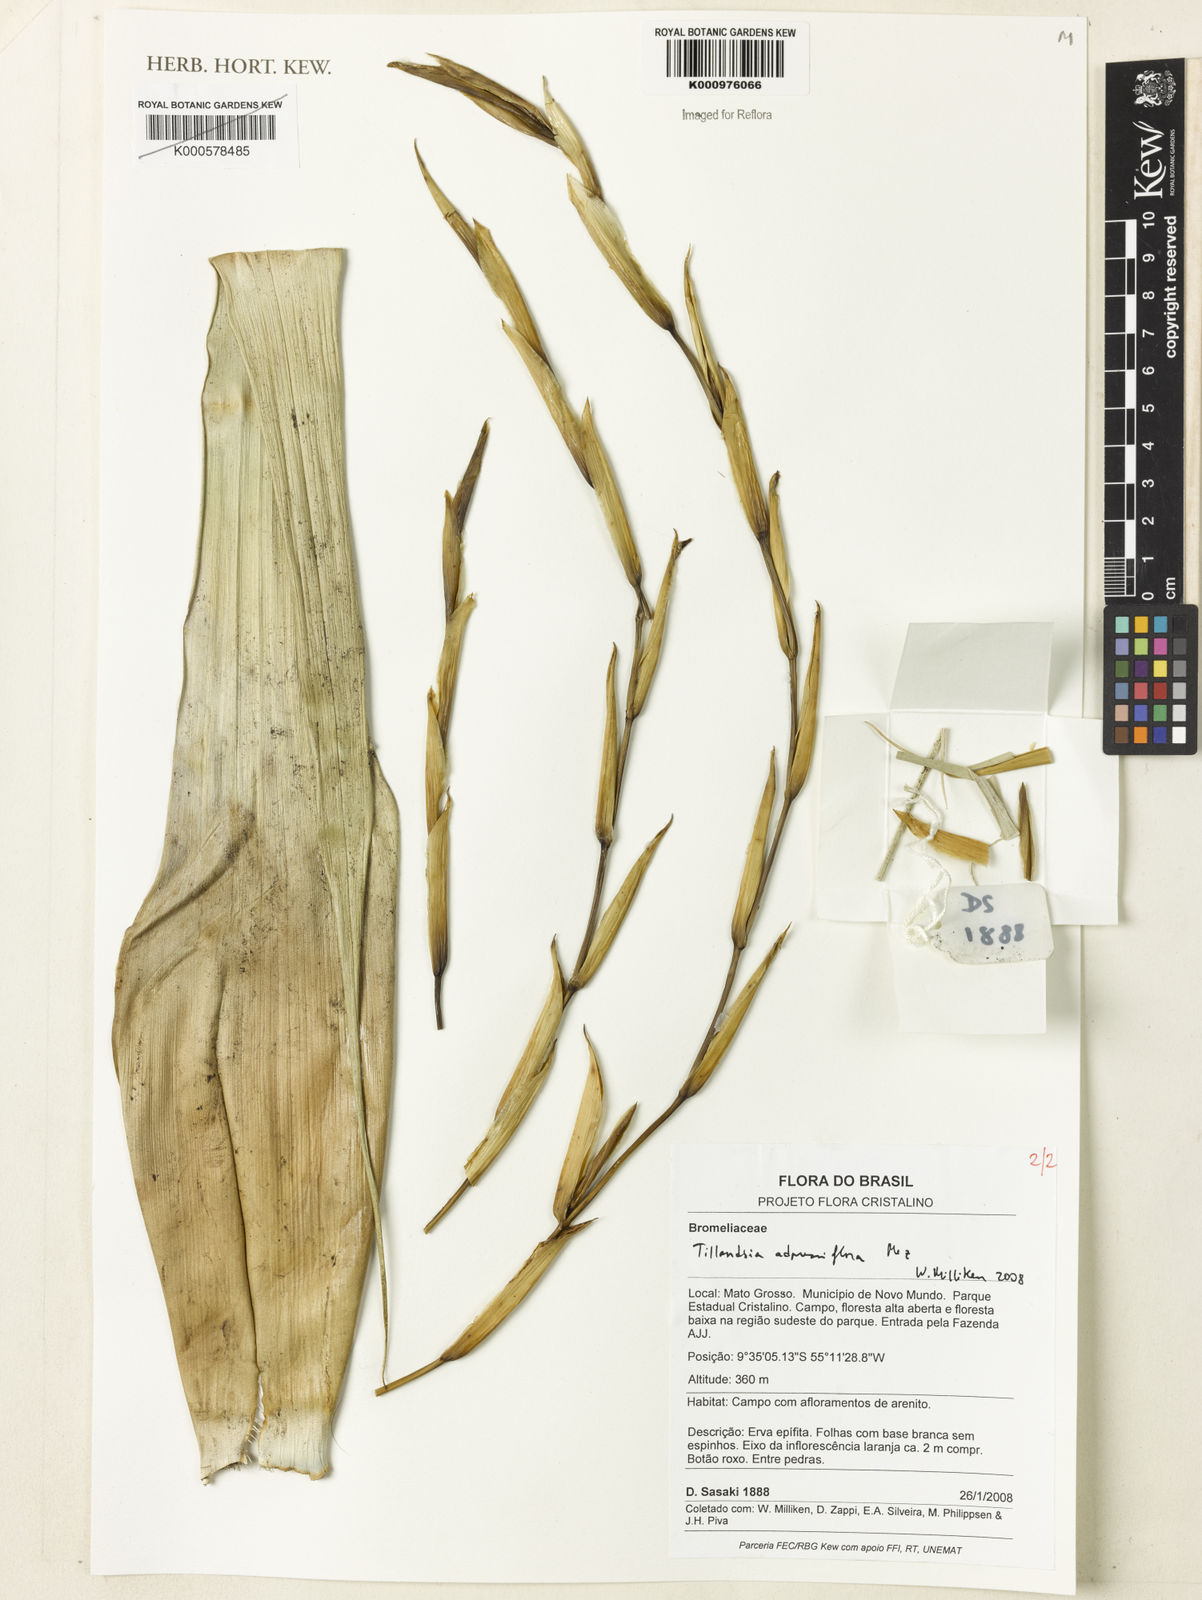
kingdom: Plantae
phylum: Tracheophyta
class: Liliopsida
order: Poales
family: Bromeliaceae
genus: Tillandsia
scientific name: Tillandsia adpressiflora
